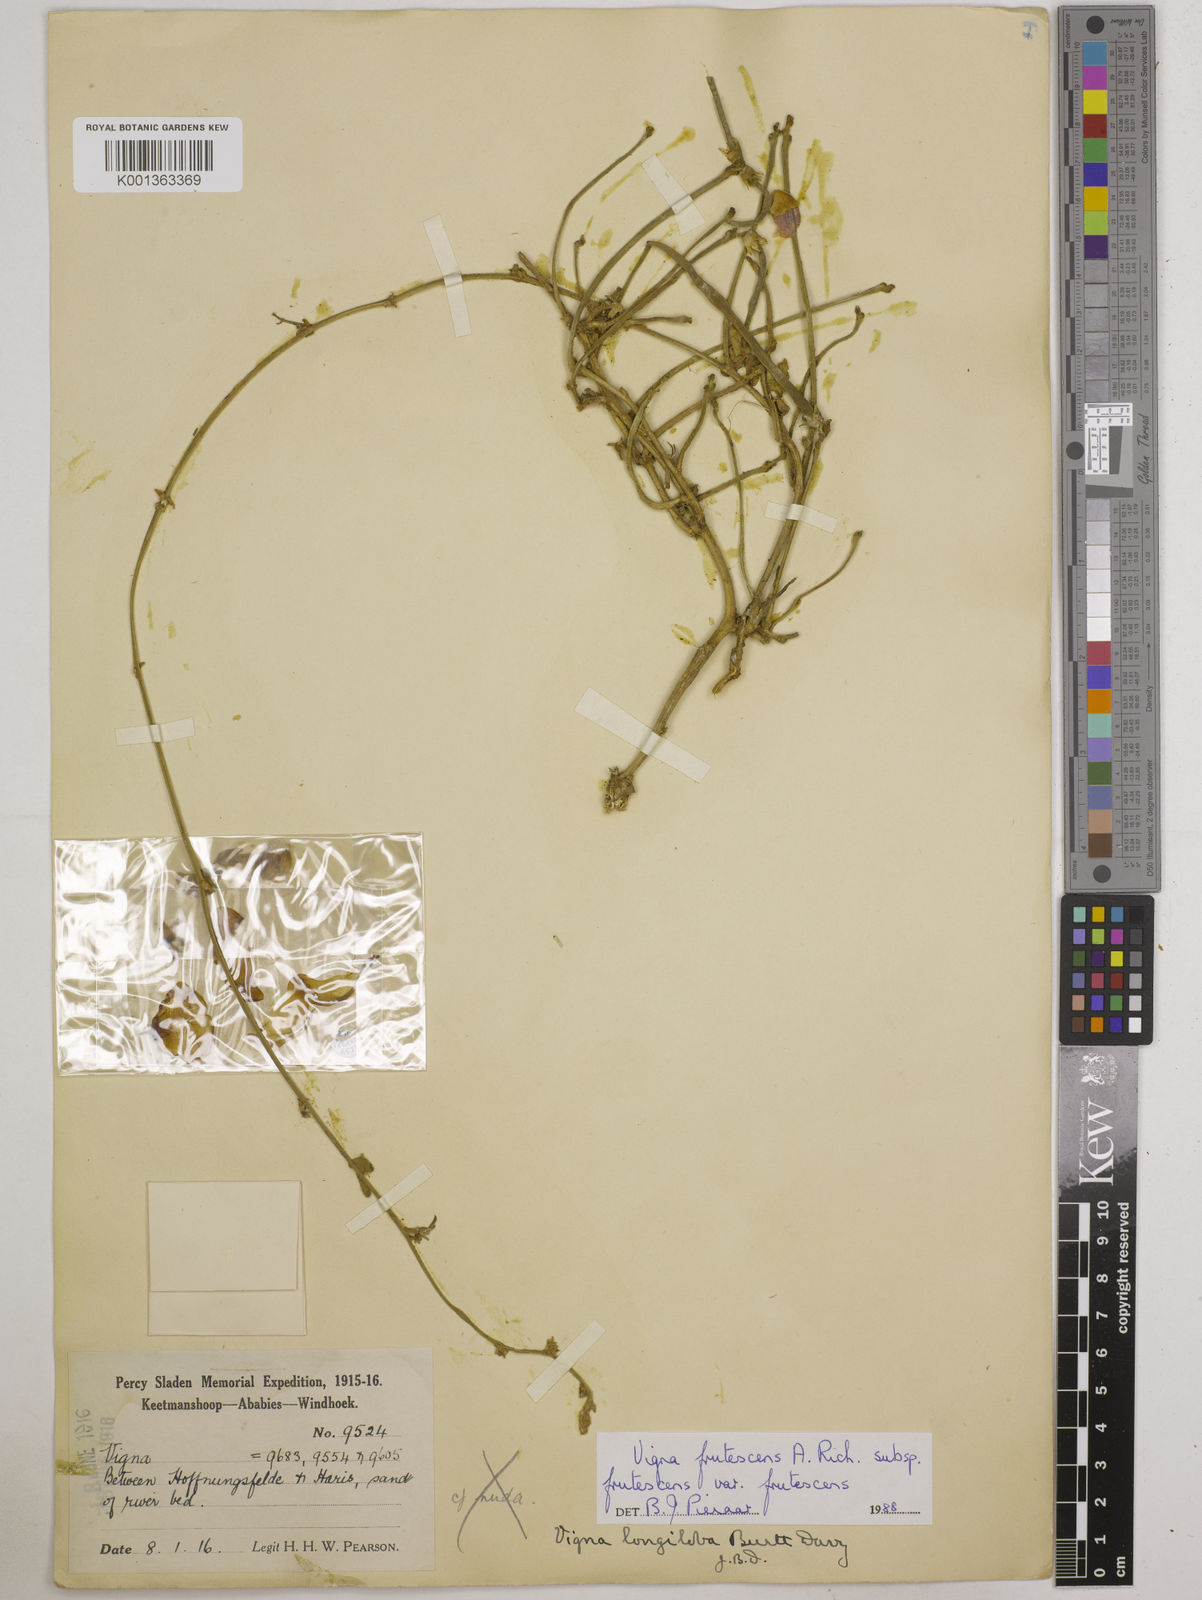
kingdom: Plantae
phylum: Tracheophyta
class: Magnoliopsida
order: Fabales
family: Fabaceae
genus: Vigna
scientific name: Vigna frutescens
